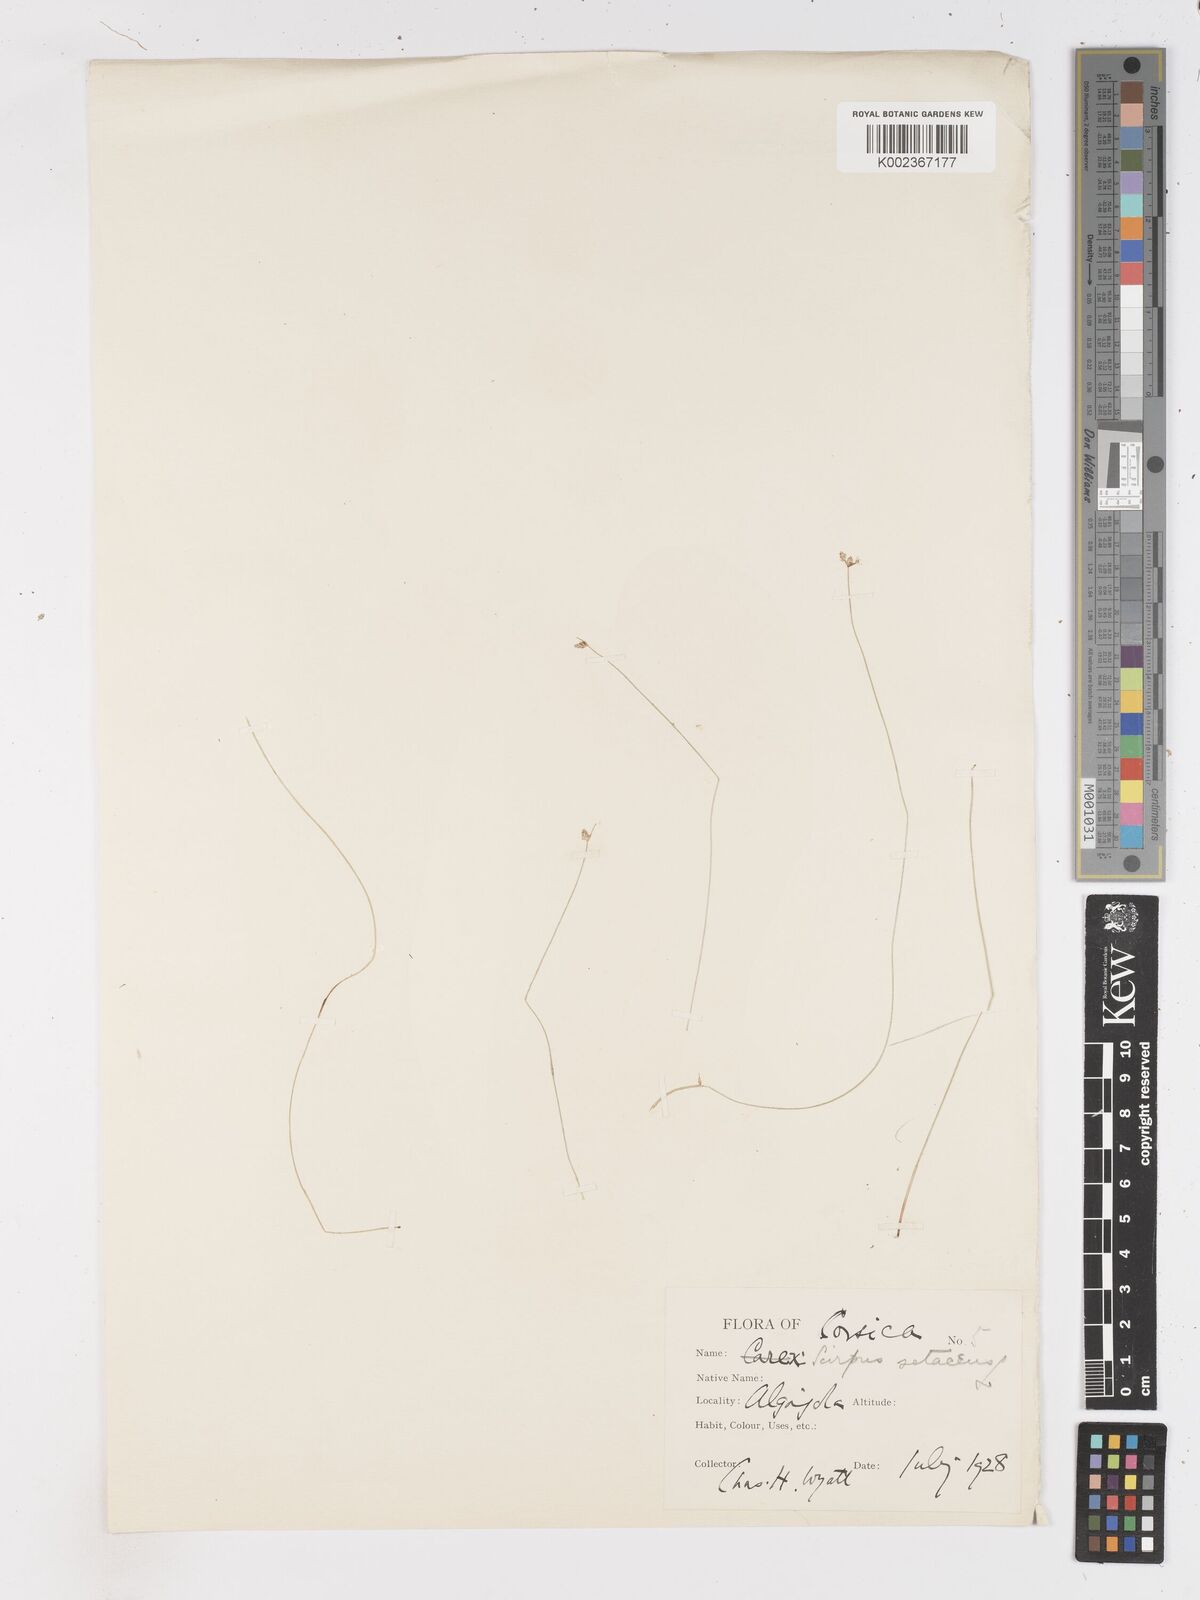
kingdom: Plantae
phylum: Tracheophyta
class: Liliopsida
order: Poales
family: Cyperaceae
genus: Isolepis
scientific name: Isolepis setacea
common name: Bristle club-rush
